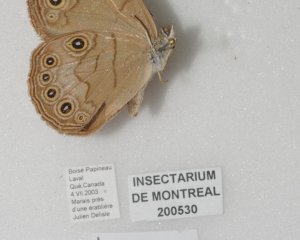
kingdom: Animalia
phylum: Arthropoda
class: Insecta
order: Lepidoptera
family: Nymphalidae
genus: Lethe
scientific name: Lethe eurydice
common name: Appalachian Eyed Brown
